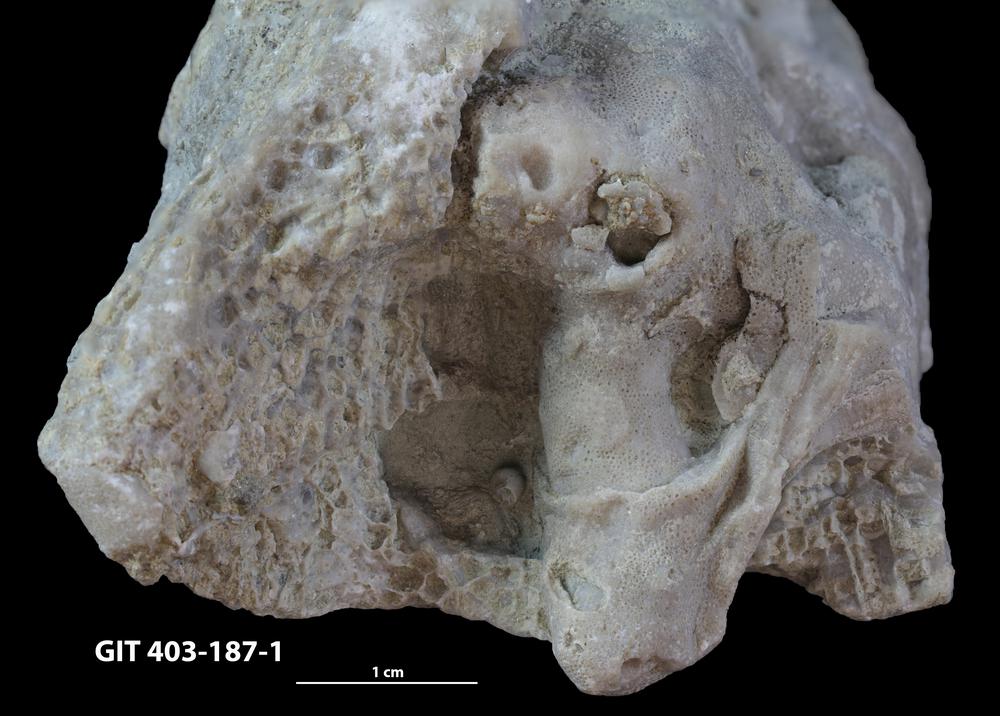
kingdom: Animalia
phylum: Cnidaria
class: Anthozoa
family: Favositidae
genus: Favosites
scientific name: Favosites
